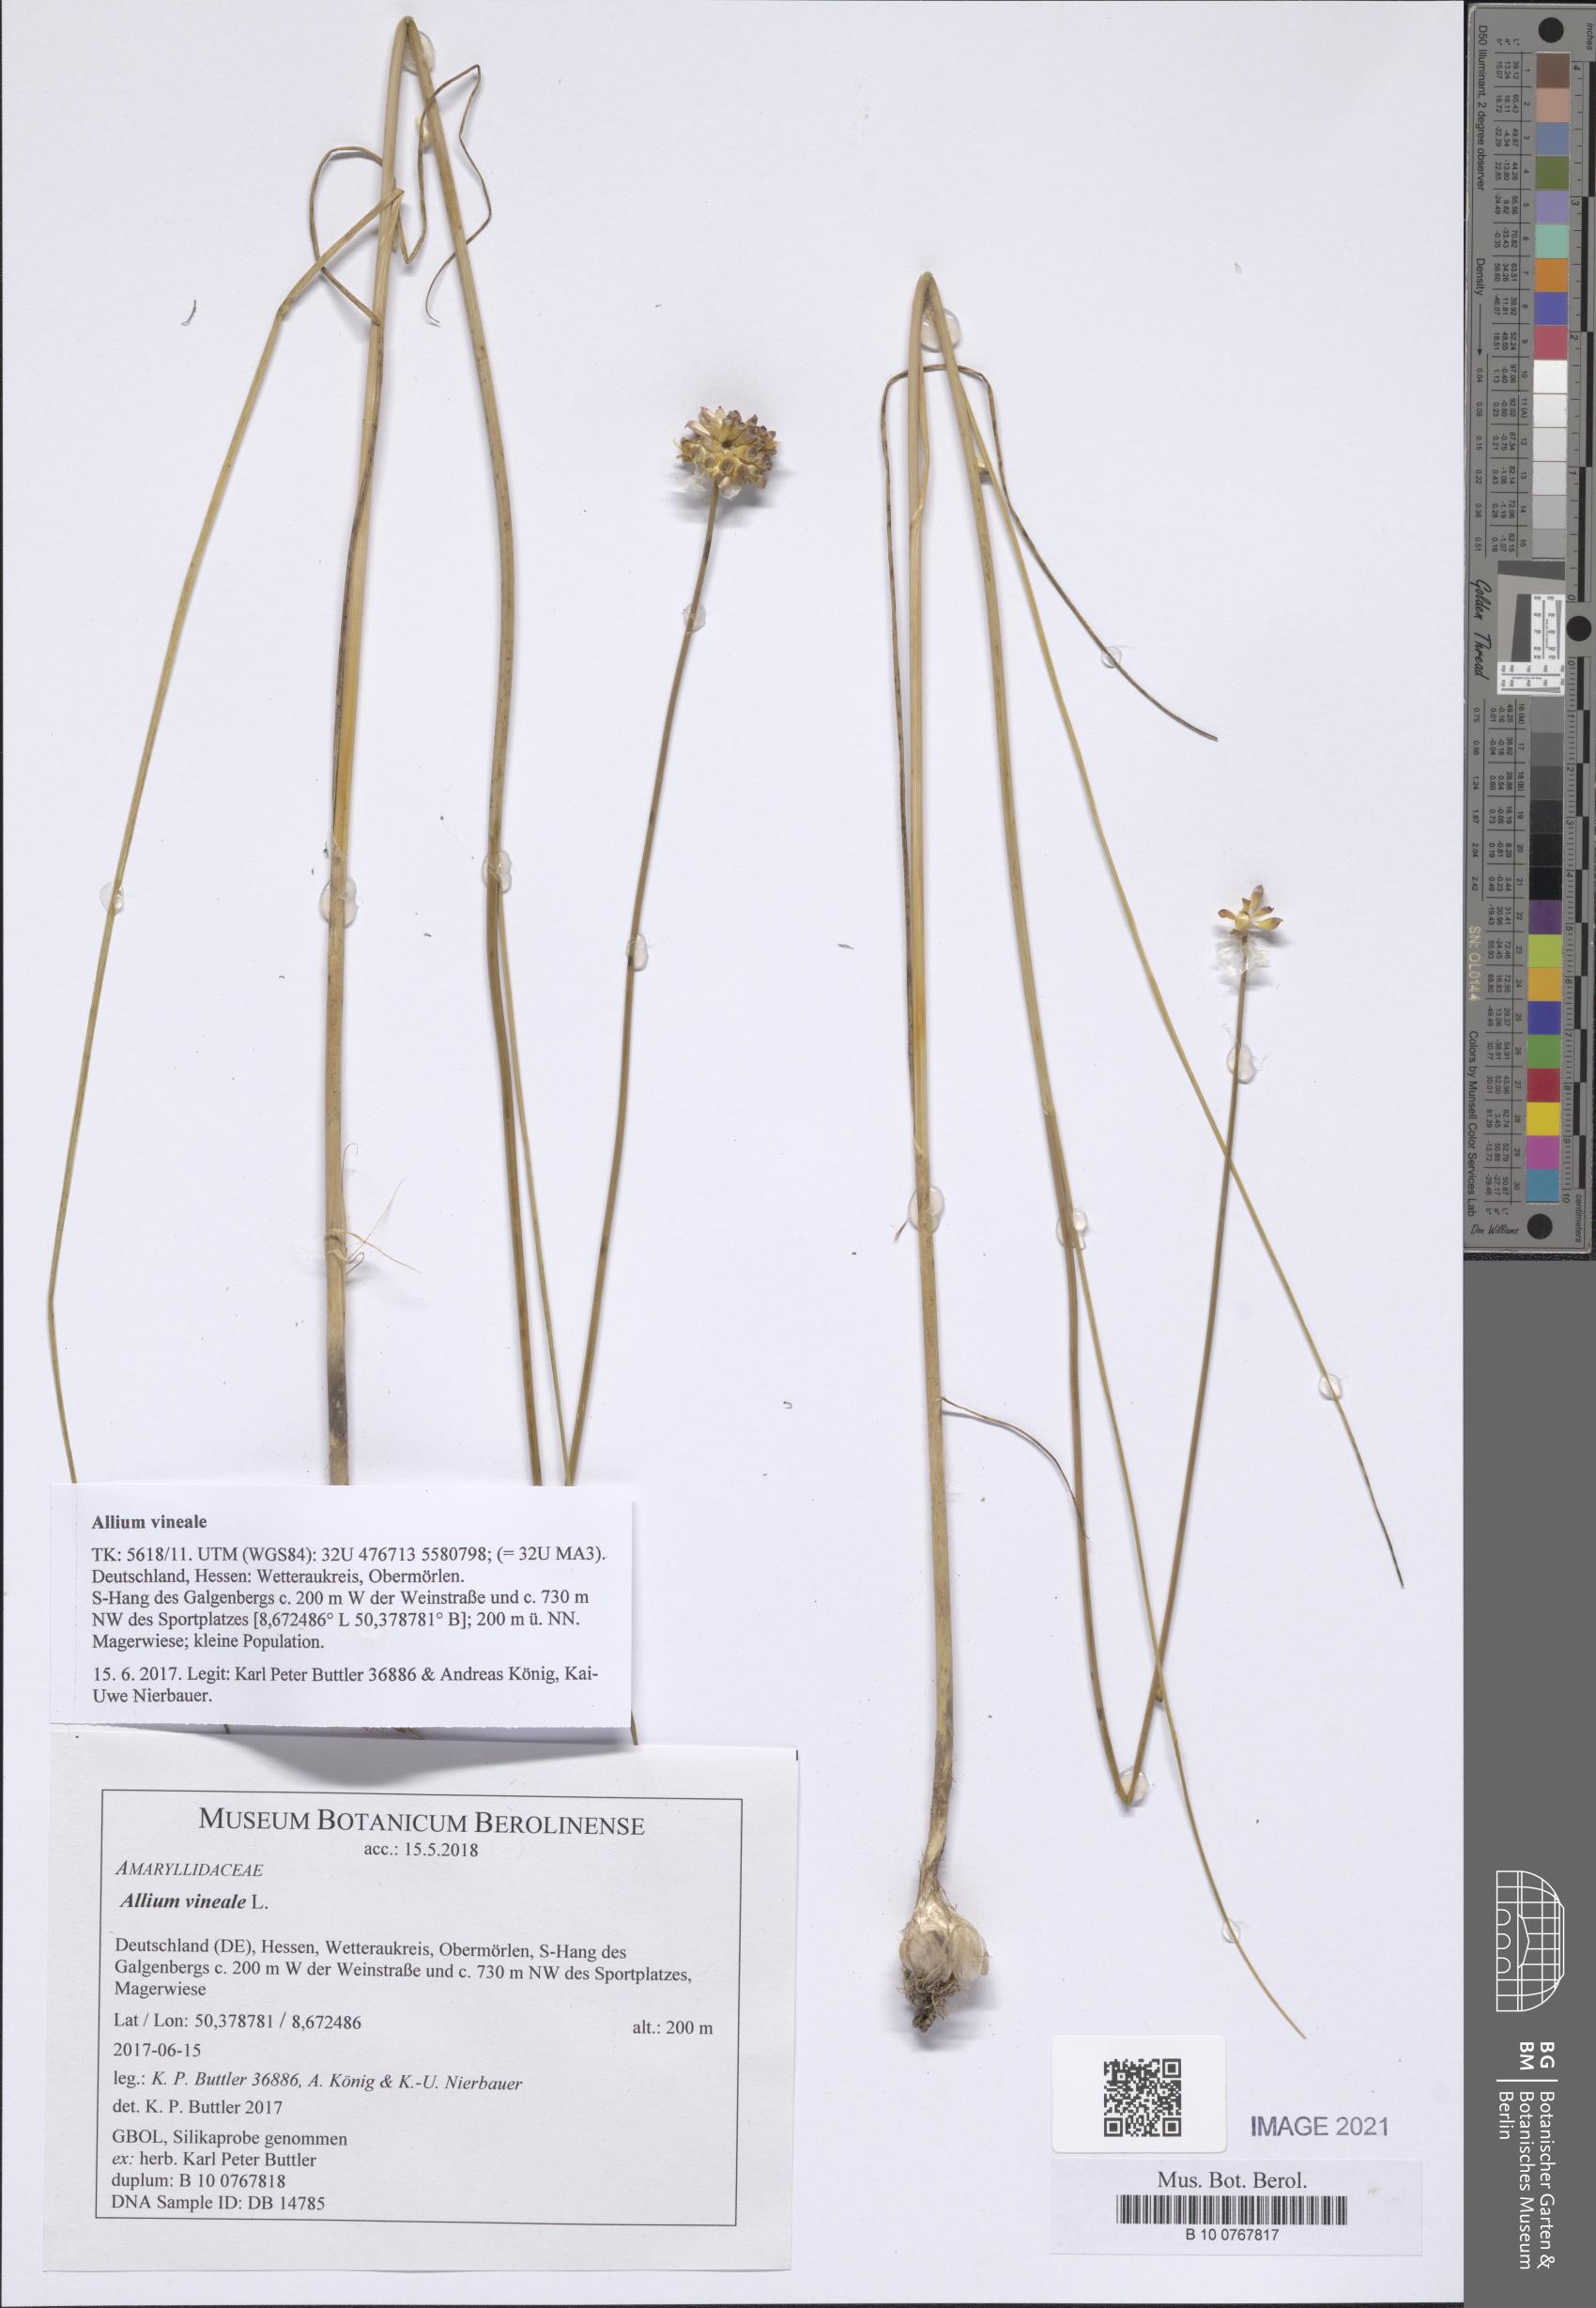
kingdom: Plantae
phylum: Tracheophyta
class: Liliopsida
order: Asparagales
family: Amaryllidaceae
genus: Allium
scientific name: Allium vineale
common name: Crow garlic
